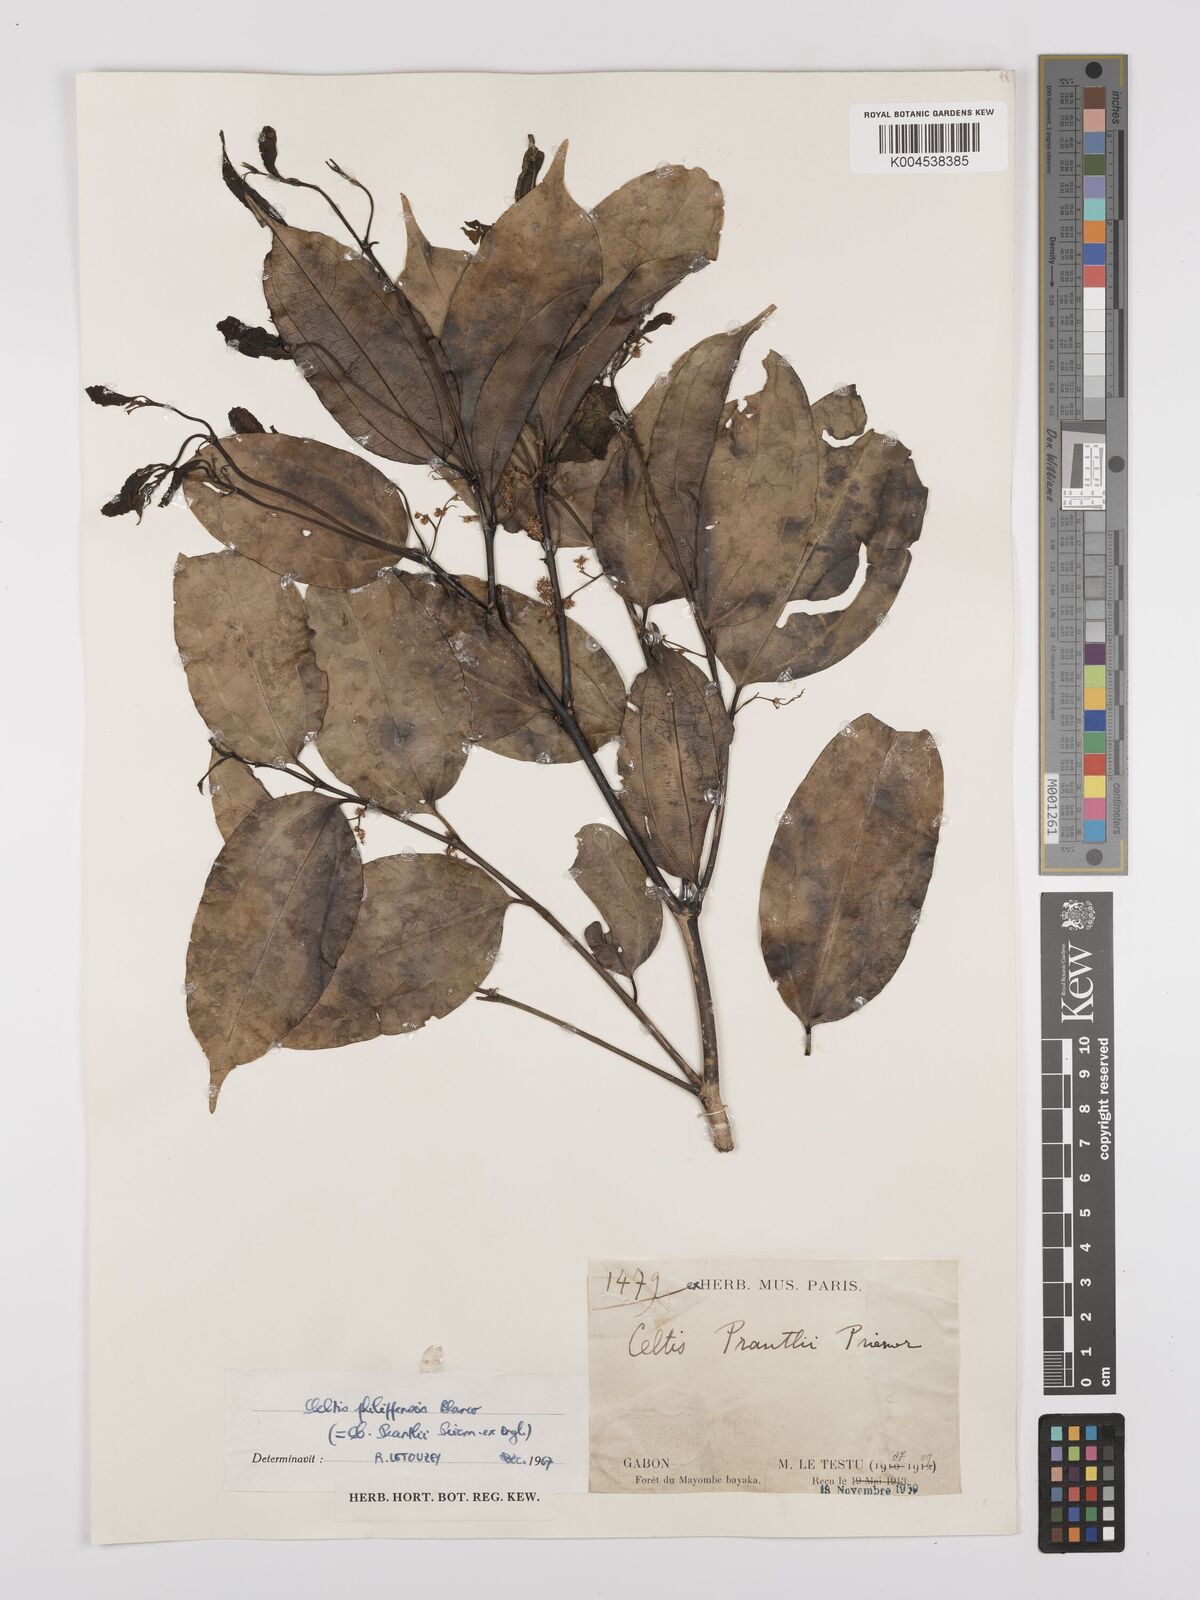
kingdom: Plantae
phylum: Tracheophyta
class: Magnoliopsida
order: Rosales
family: Cannabaceae
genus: Celtis
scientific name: Celtis philippensis
